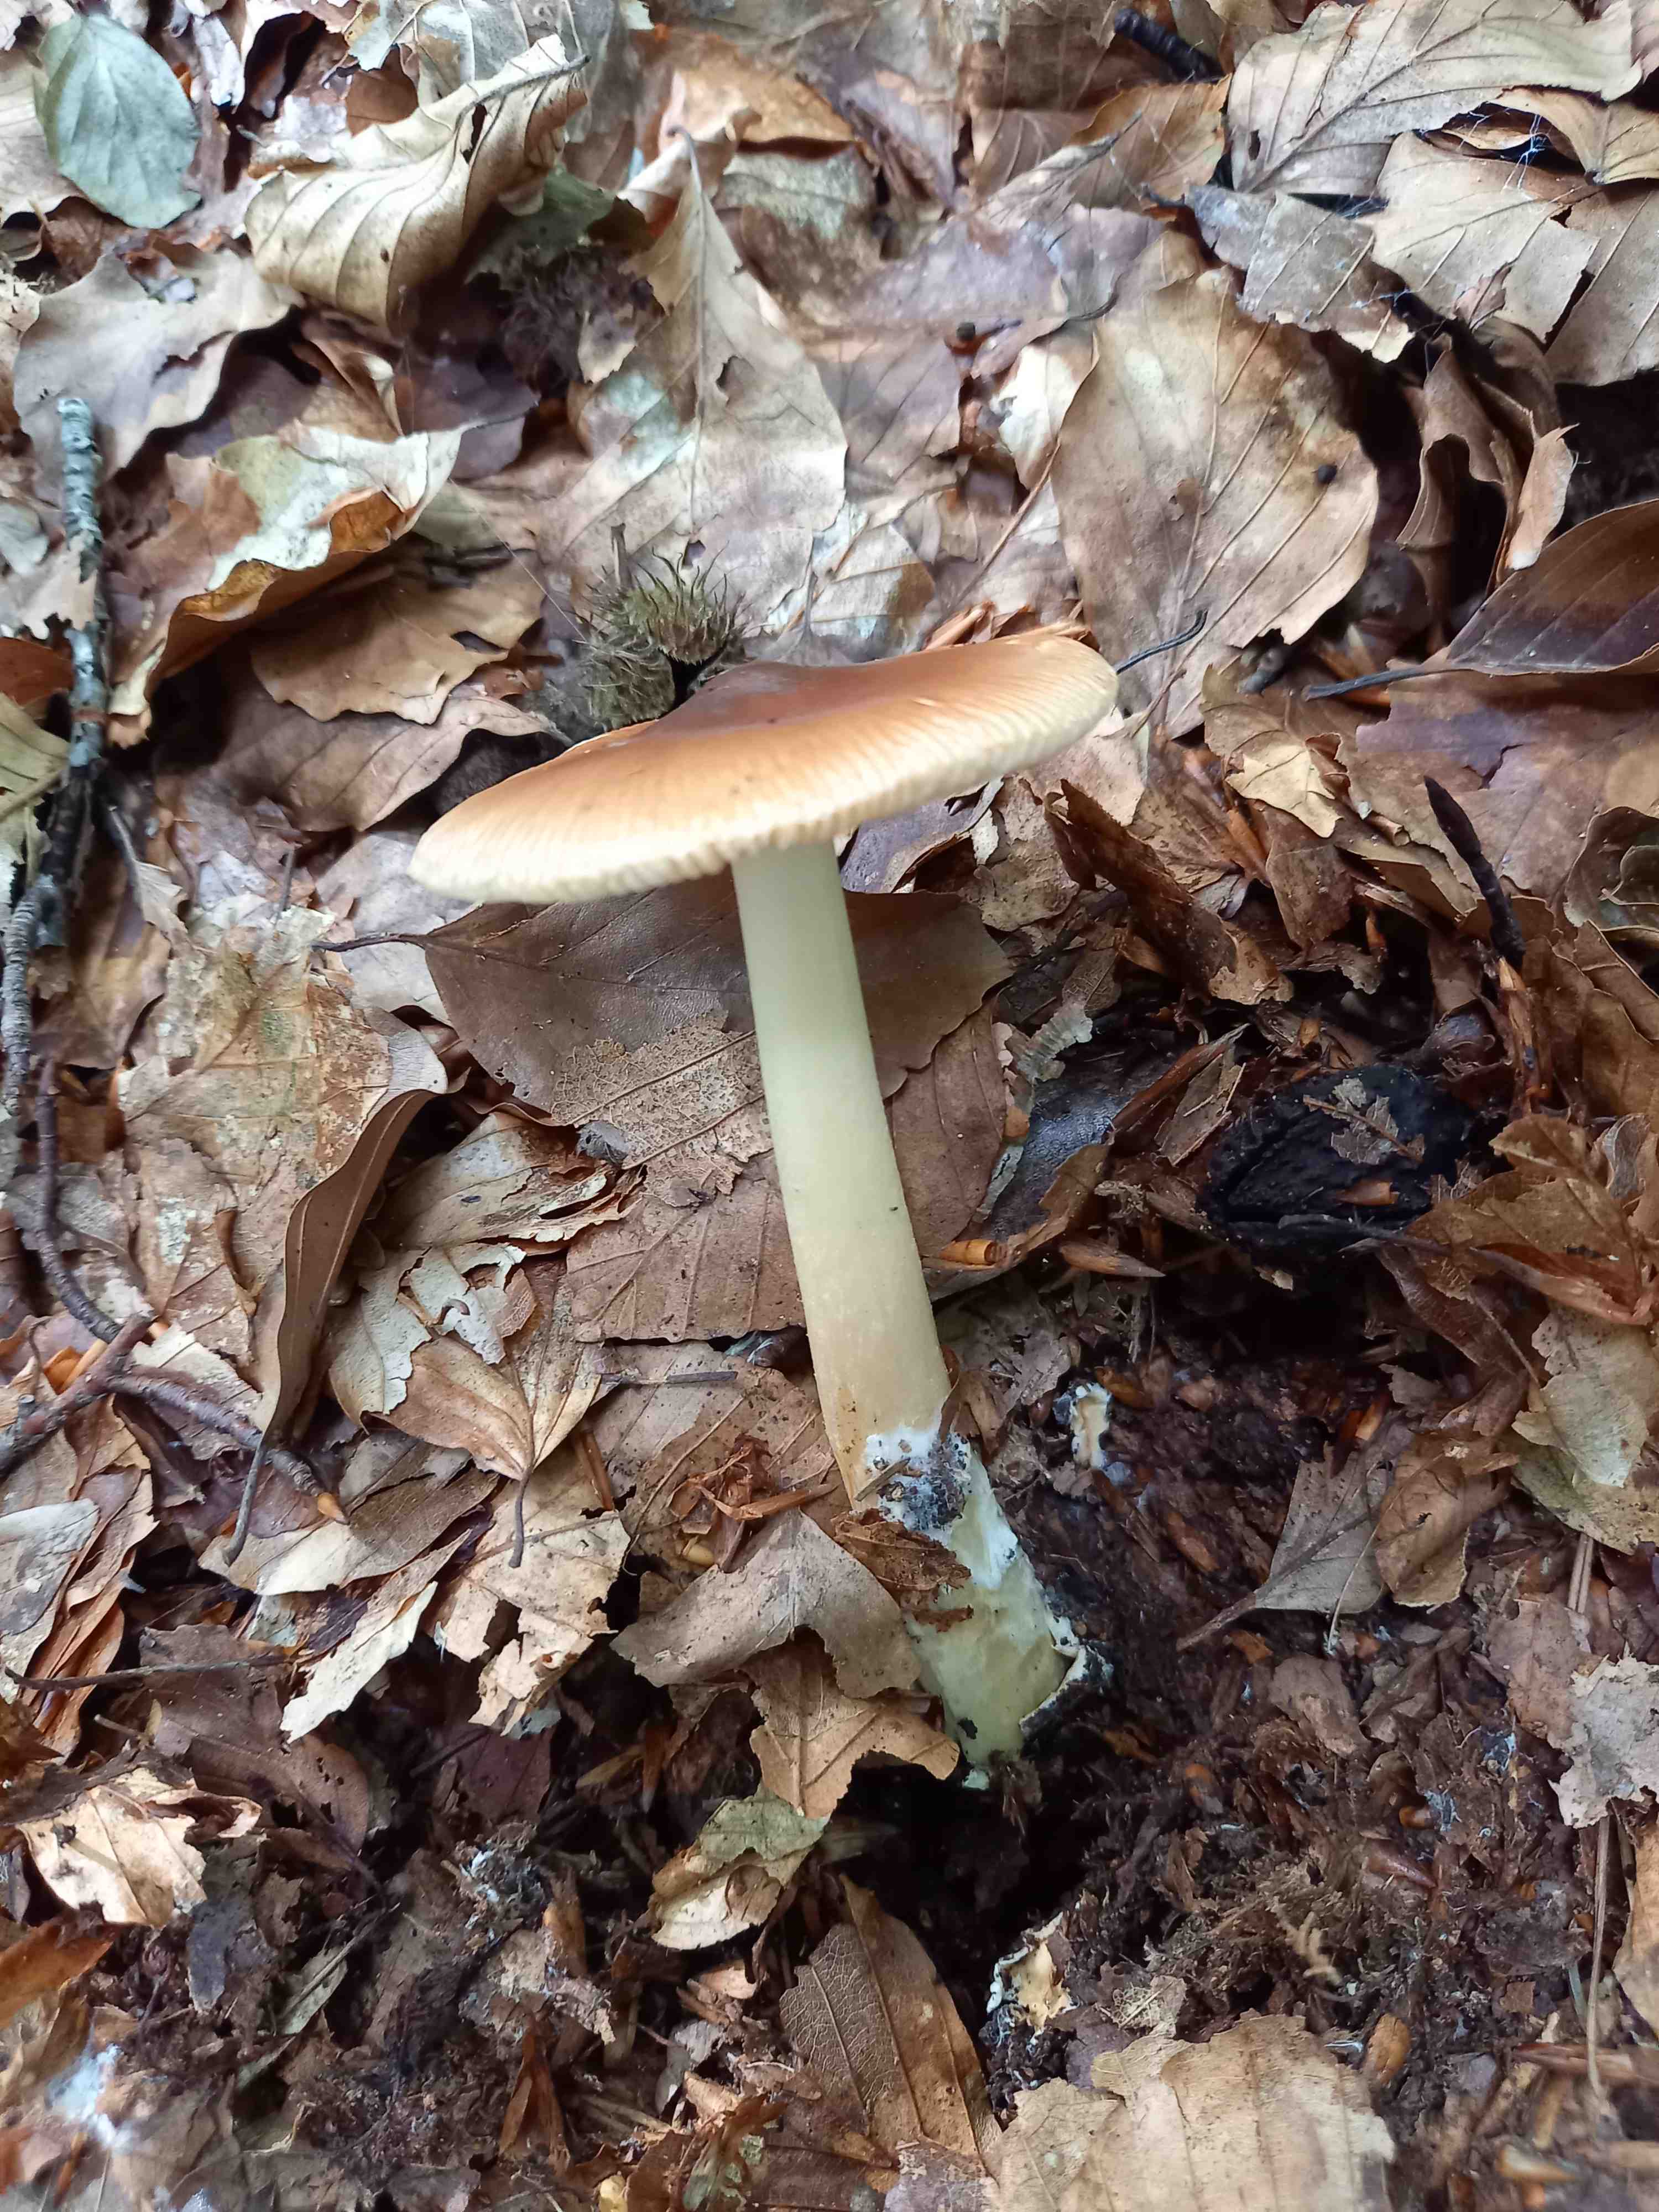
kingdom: Fungi
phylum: Basidiomycota
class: Agaricomycetes
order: Agaricales
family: Amanitaceae
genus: Amanita
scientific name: Amanita fulva
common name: brun kam-fluesvamp
